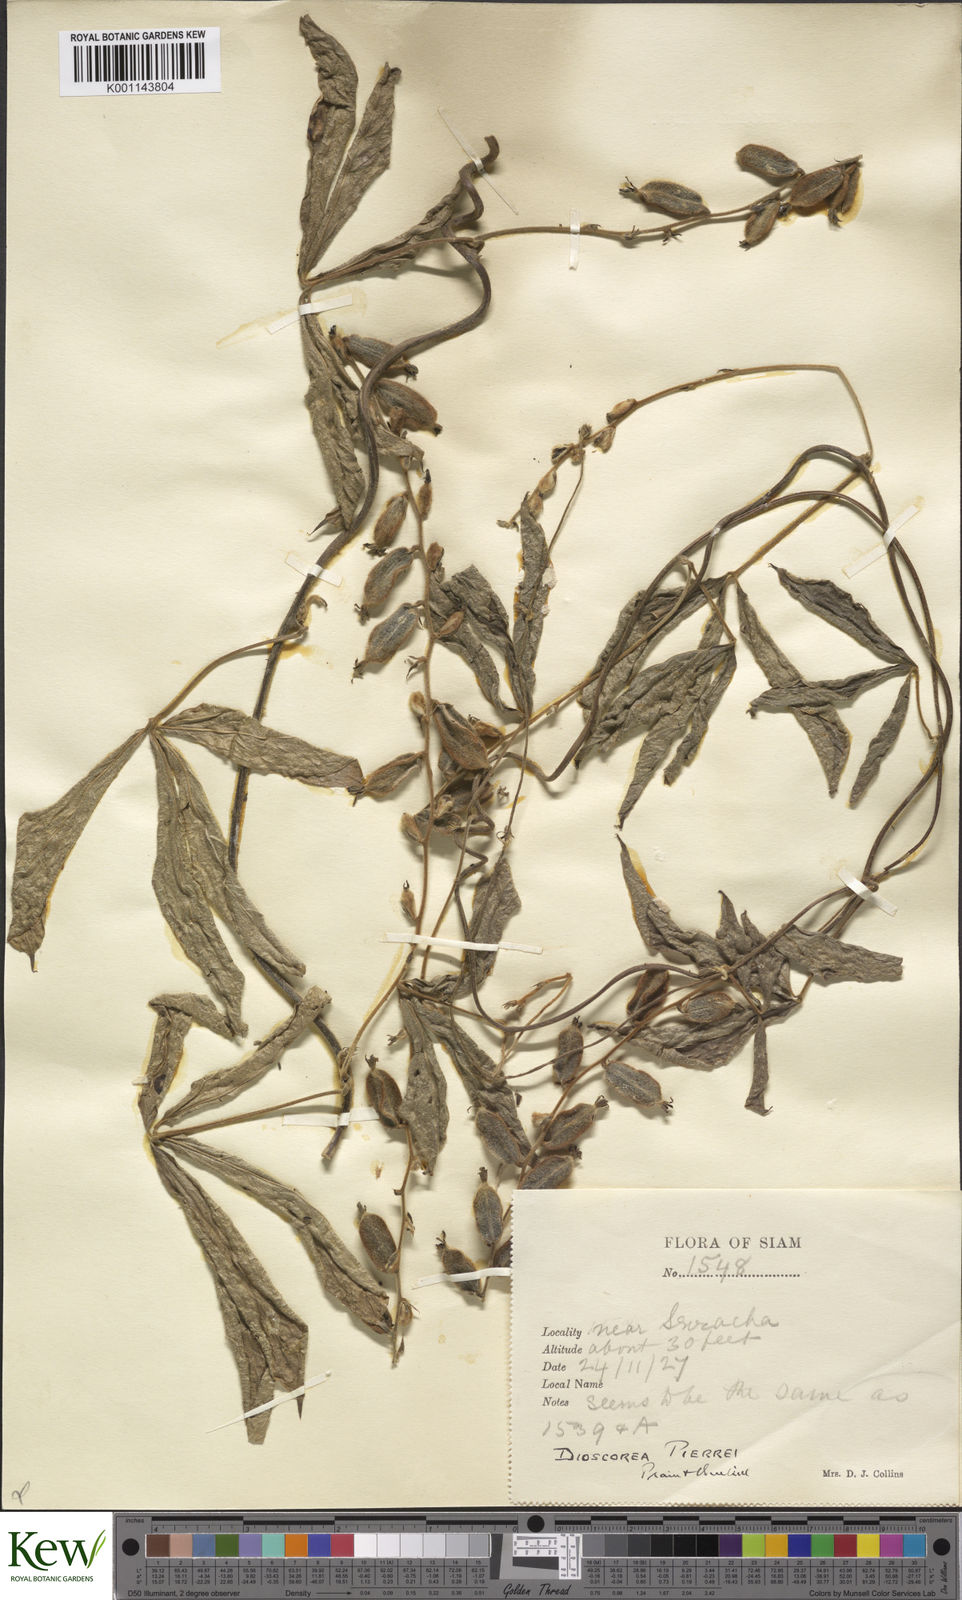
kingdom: Plantae
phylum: Tracheophyta
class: Liliopsida
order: Dioscoreales
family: Dioscoreaceae
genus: Dioscorea
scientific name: Dioscorea pierrei
